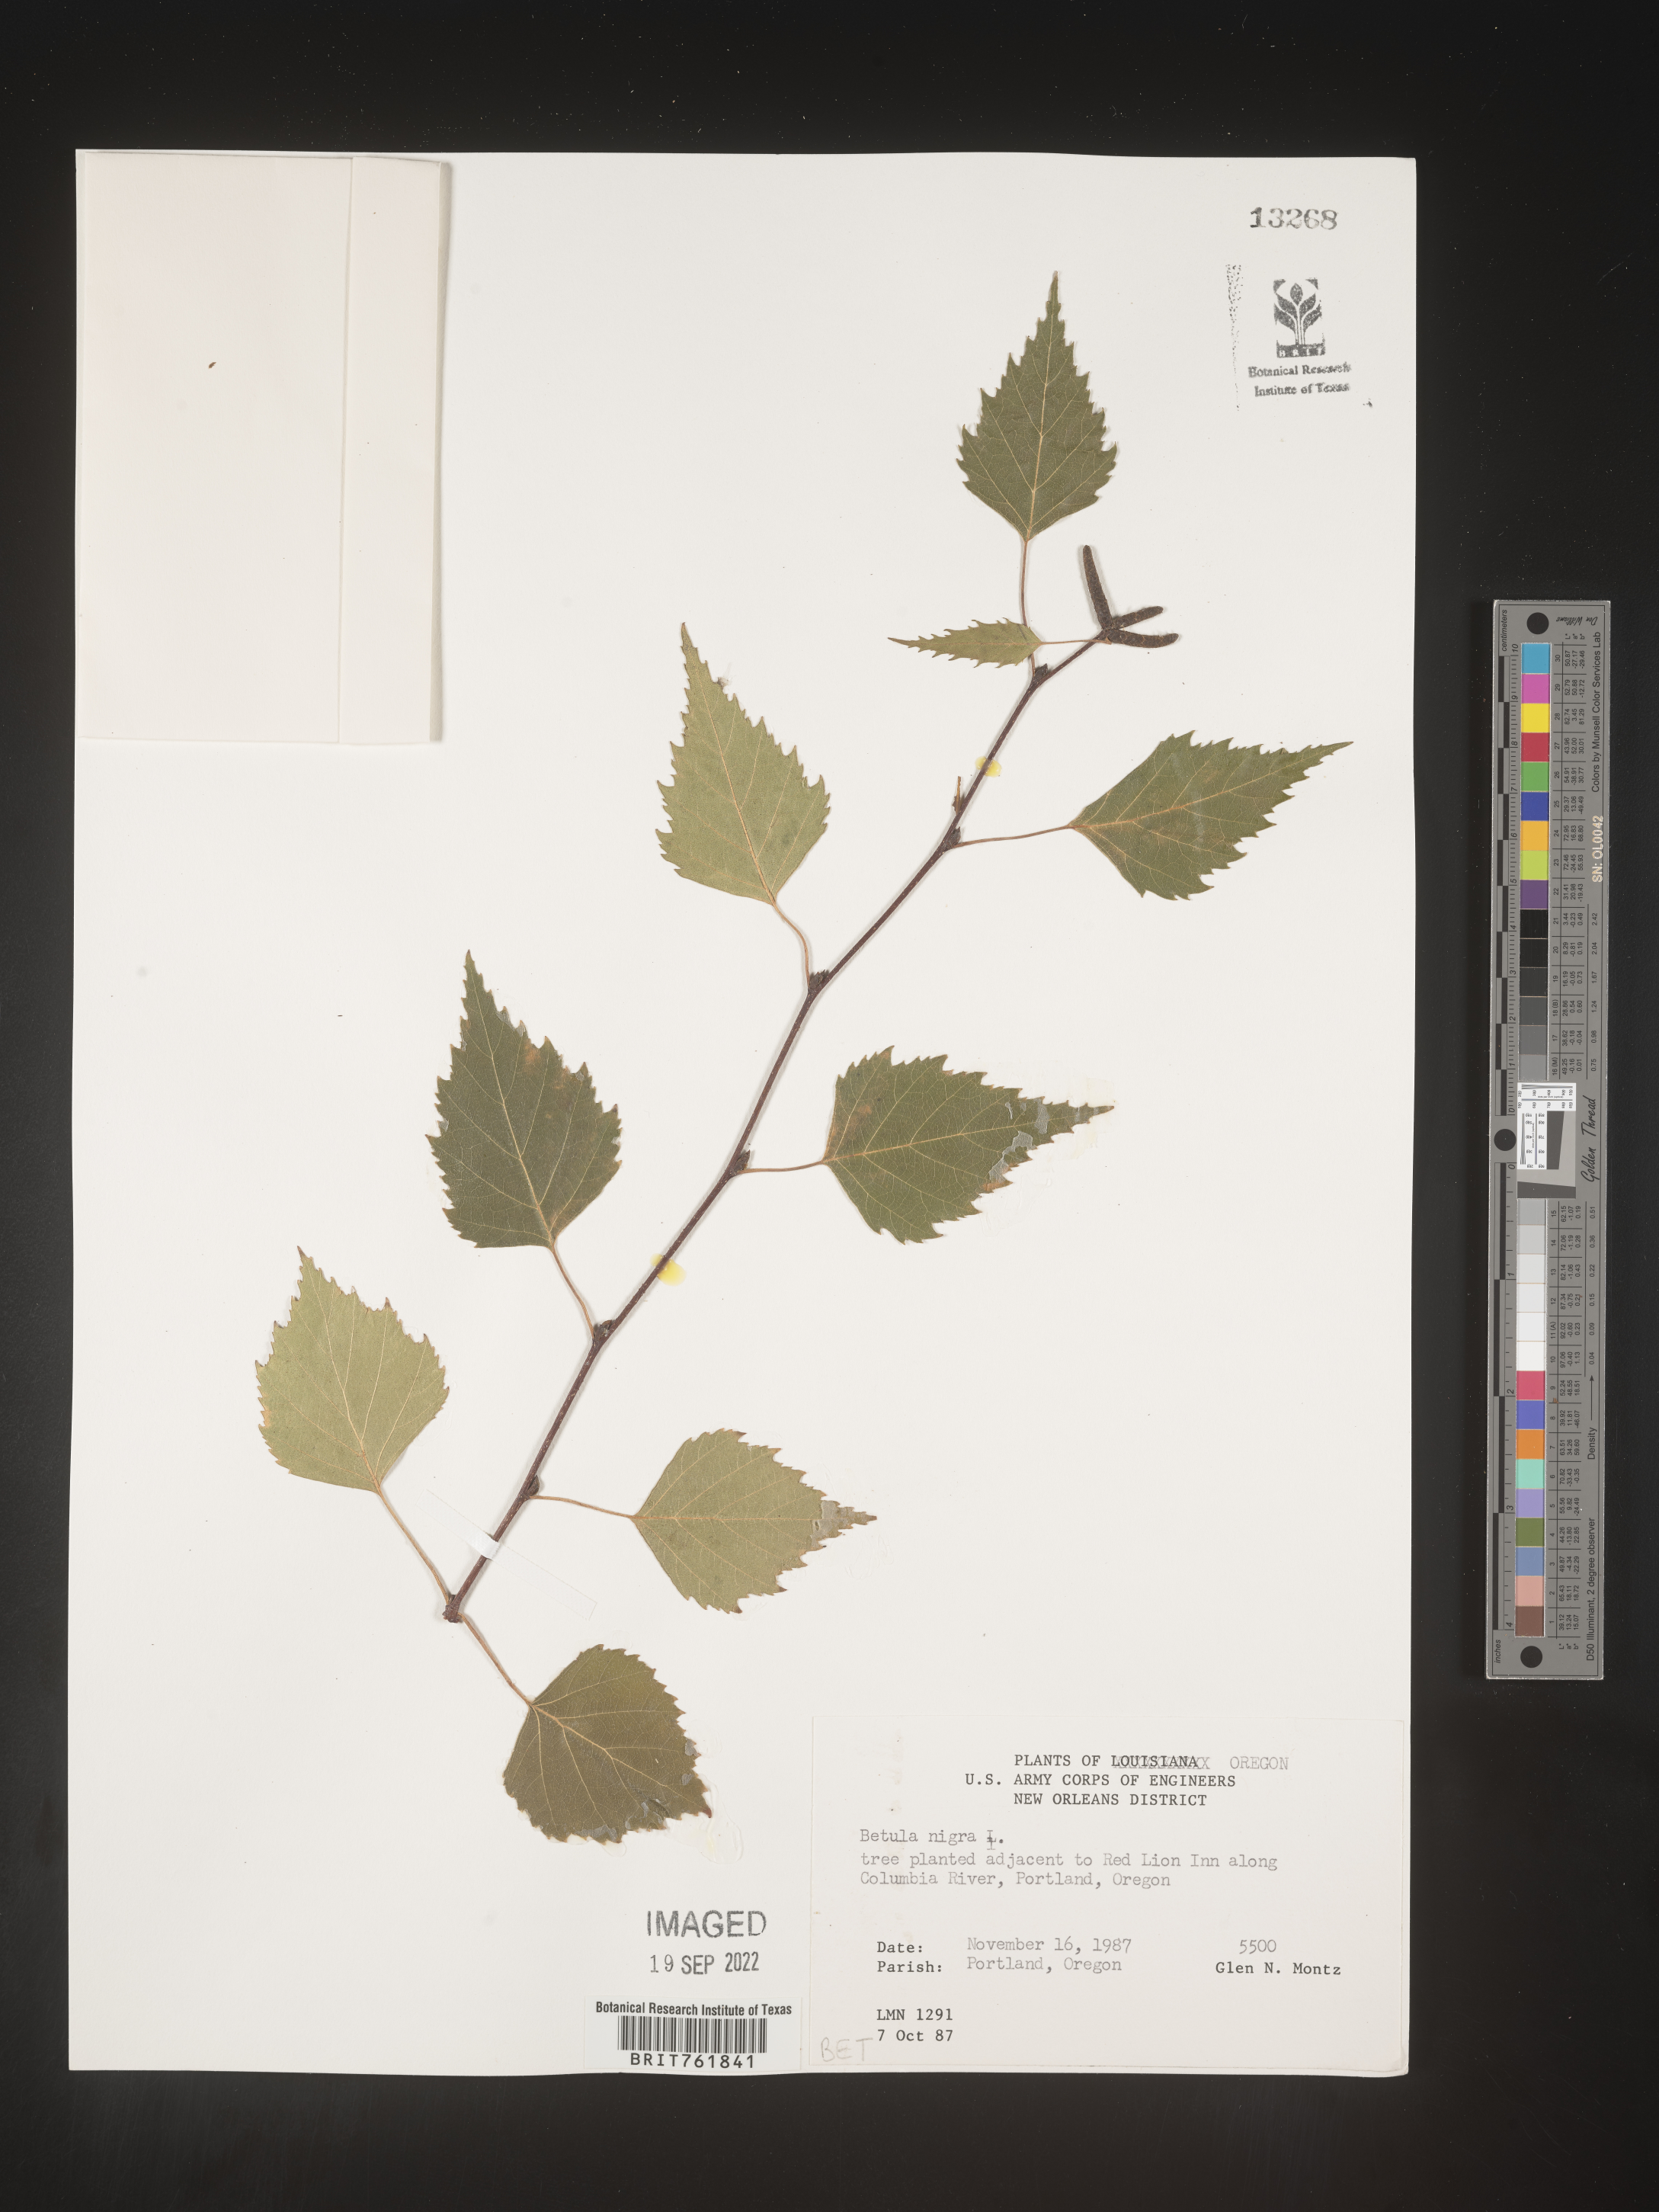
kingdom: Plantae
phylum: Tracheophyta
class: Magnoliopsida
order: Fagales
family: Betulaceae
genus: Betula
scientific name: Betula nigra
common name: Black birch
